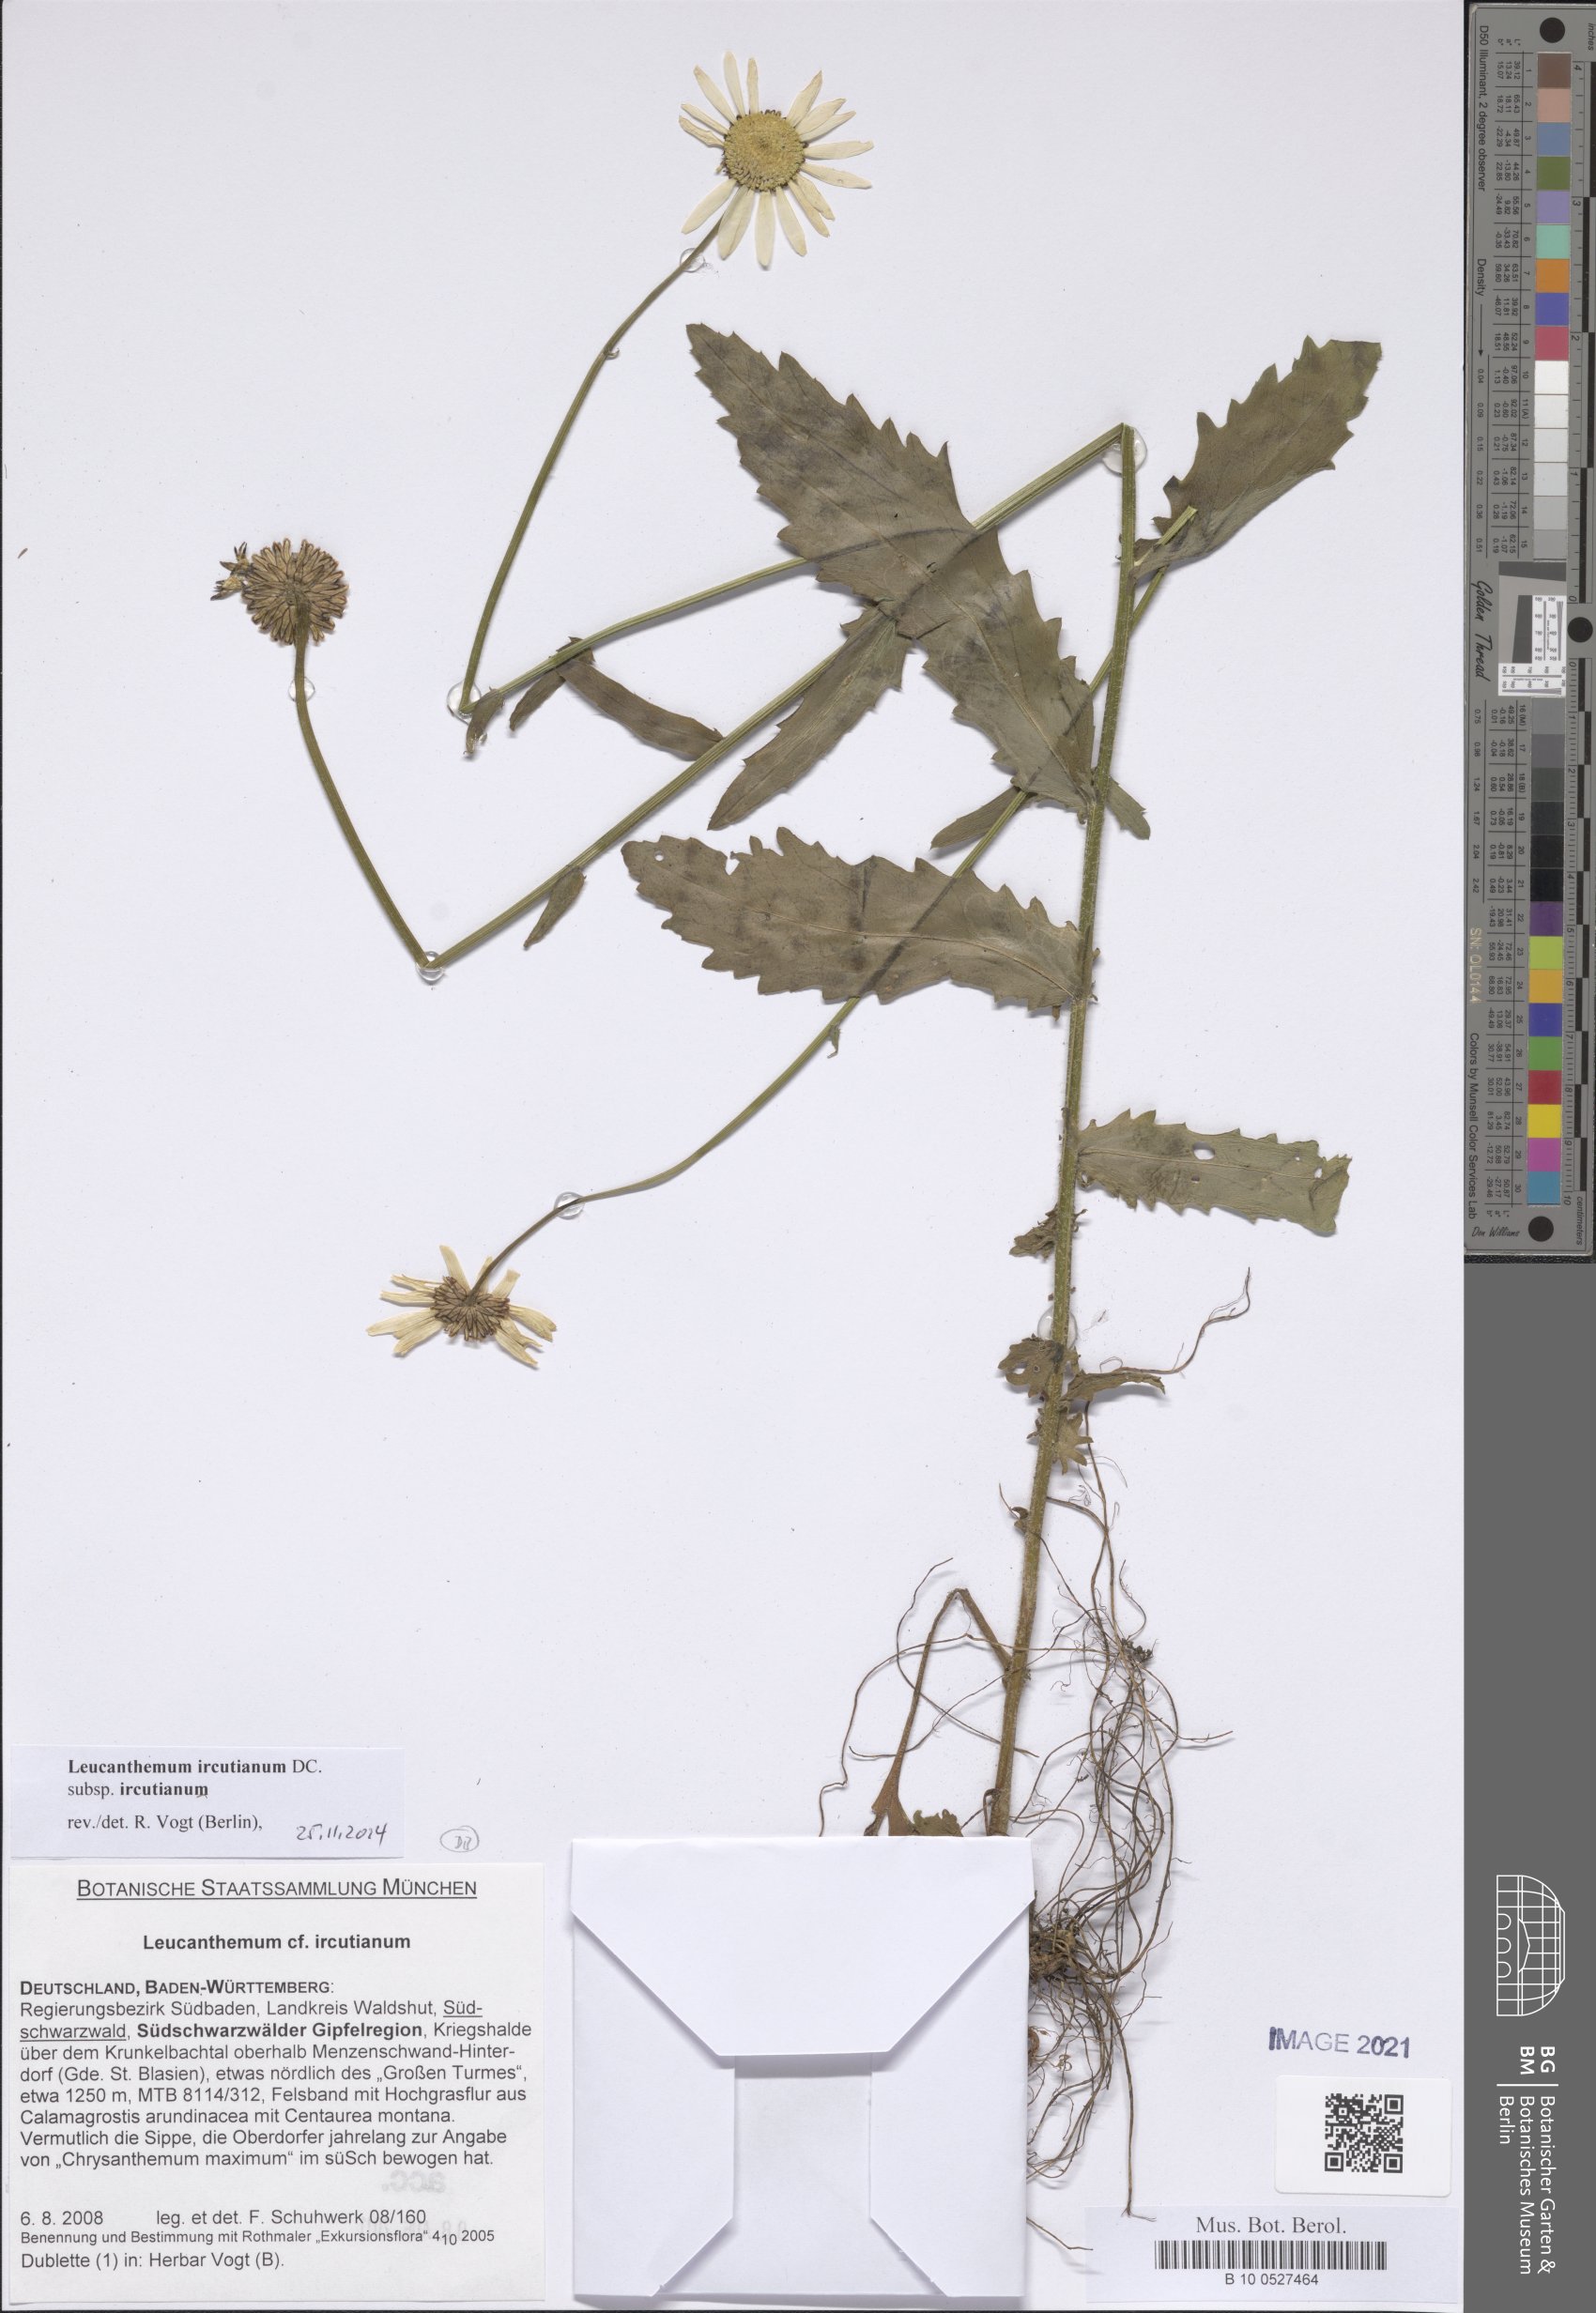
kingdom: Plantae
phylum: Tracheophyta
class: Magnoliopsida
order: Asterales
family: Asteraceae
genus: Leucanthemum
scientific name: Leucanthemum ircutianum
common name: Daisy
